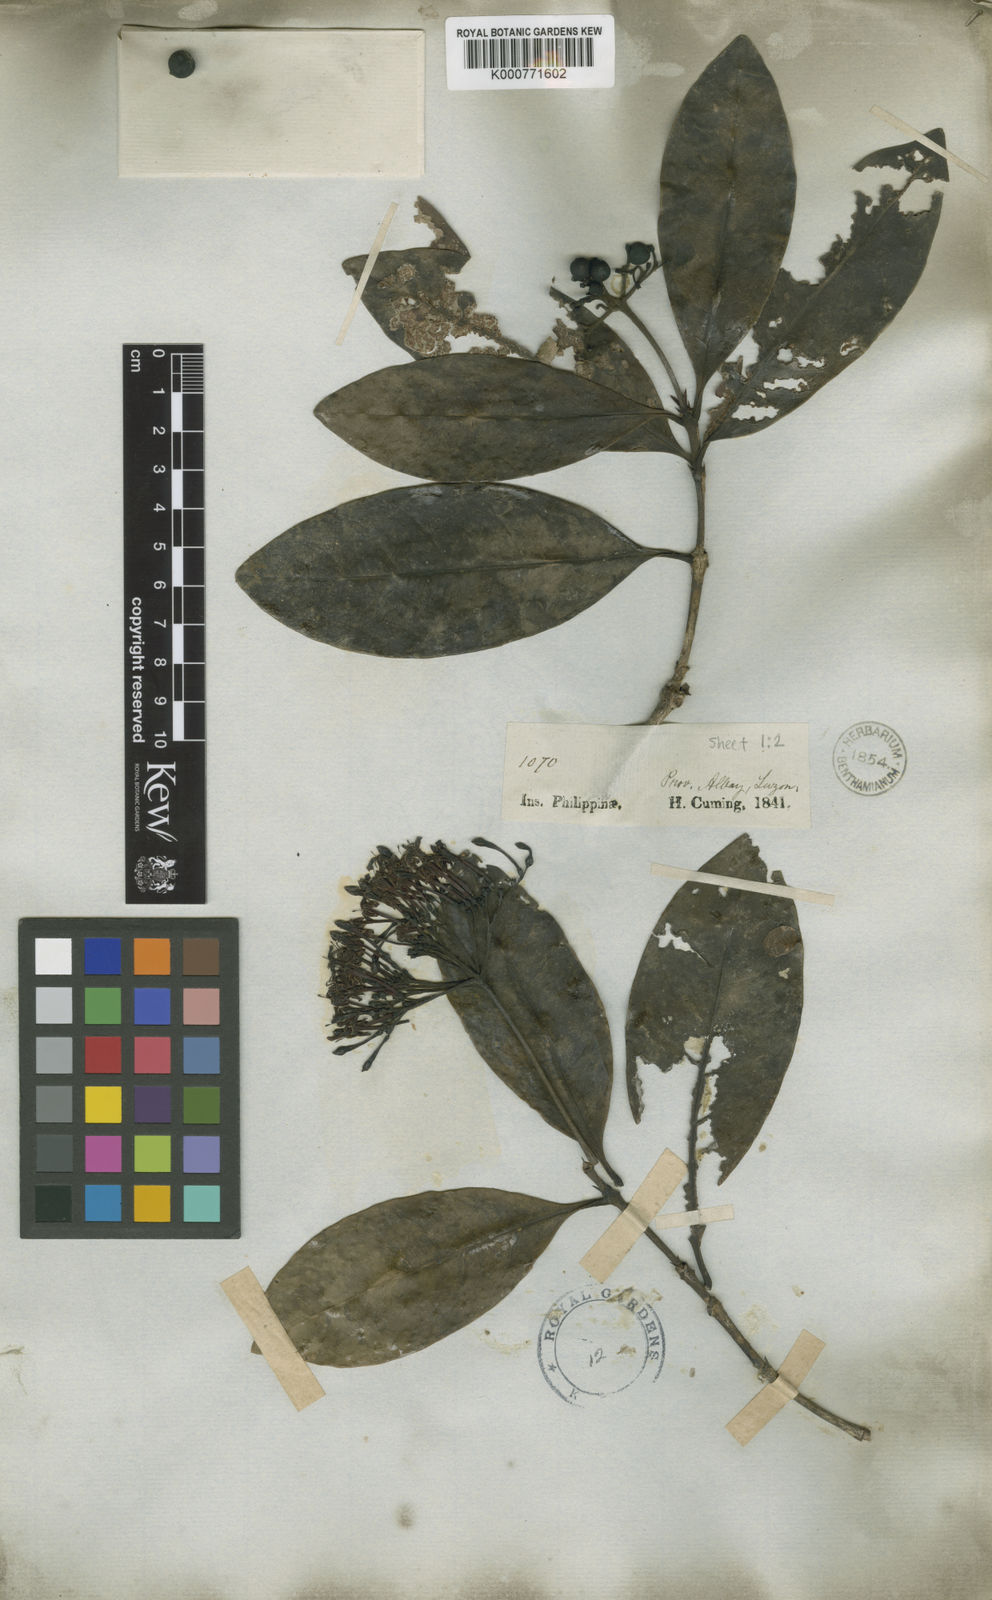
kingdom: Plantae
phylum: Tracheophyta
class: Magnoliopsida
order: Gentianales
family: Rubiaceae
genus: Ixora
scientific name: Ixora
